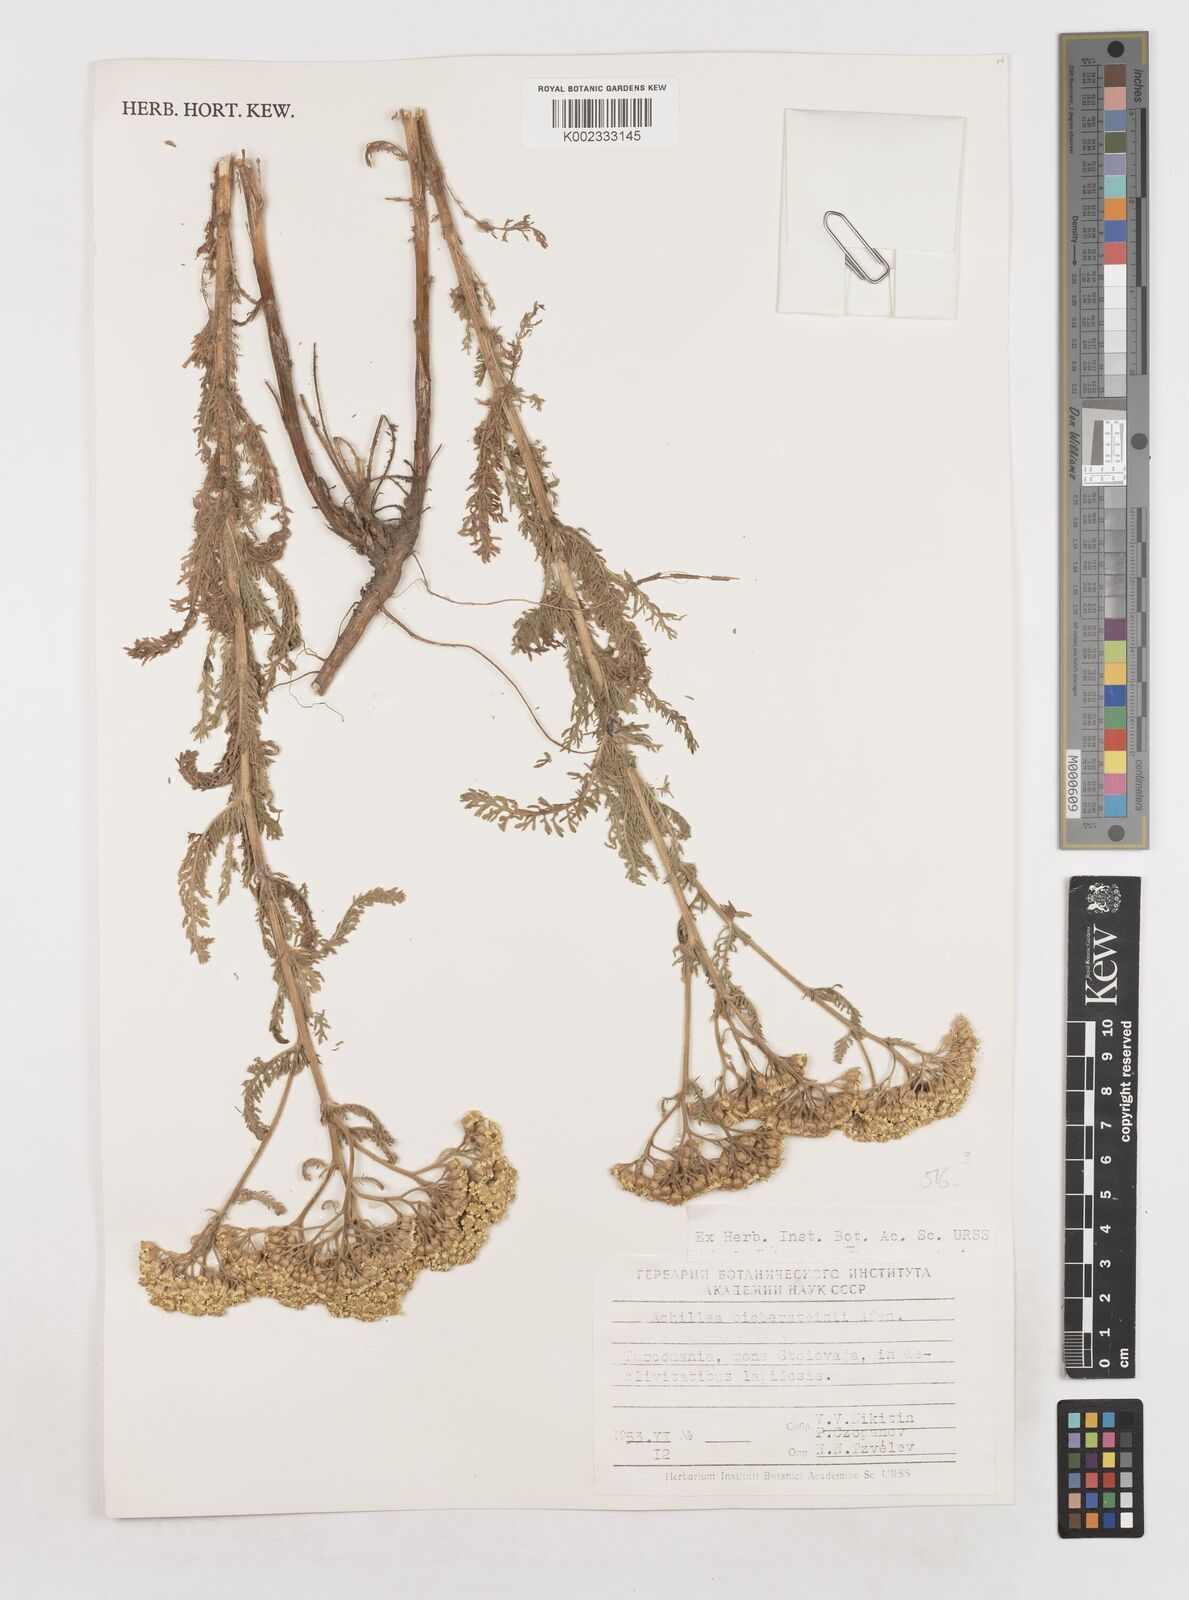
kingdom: Plantae
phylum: Tracheophyta
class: Magnoliopsida
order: Asterales
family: Asteraceae
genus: Achillea
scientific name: Achillea arabica
